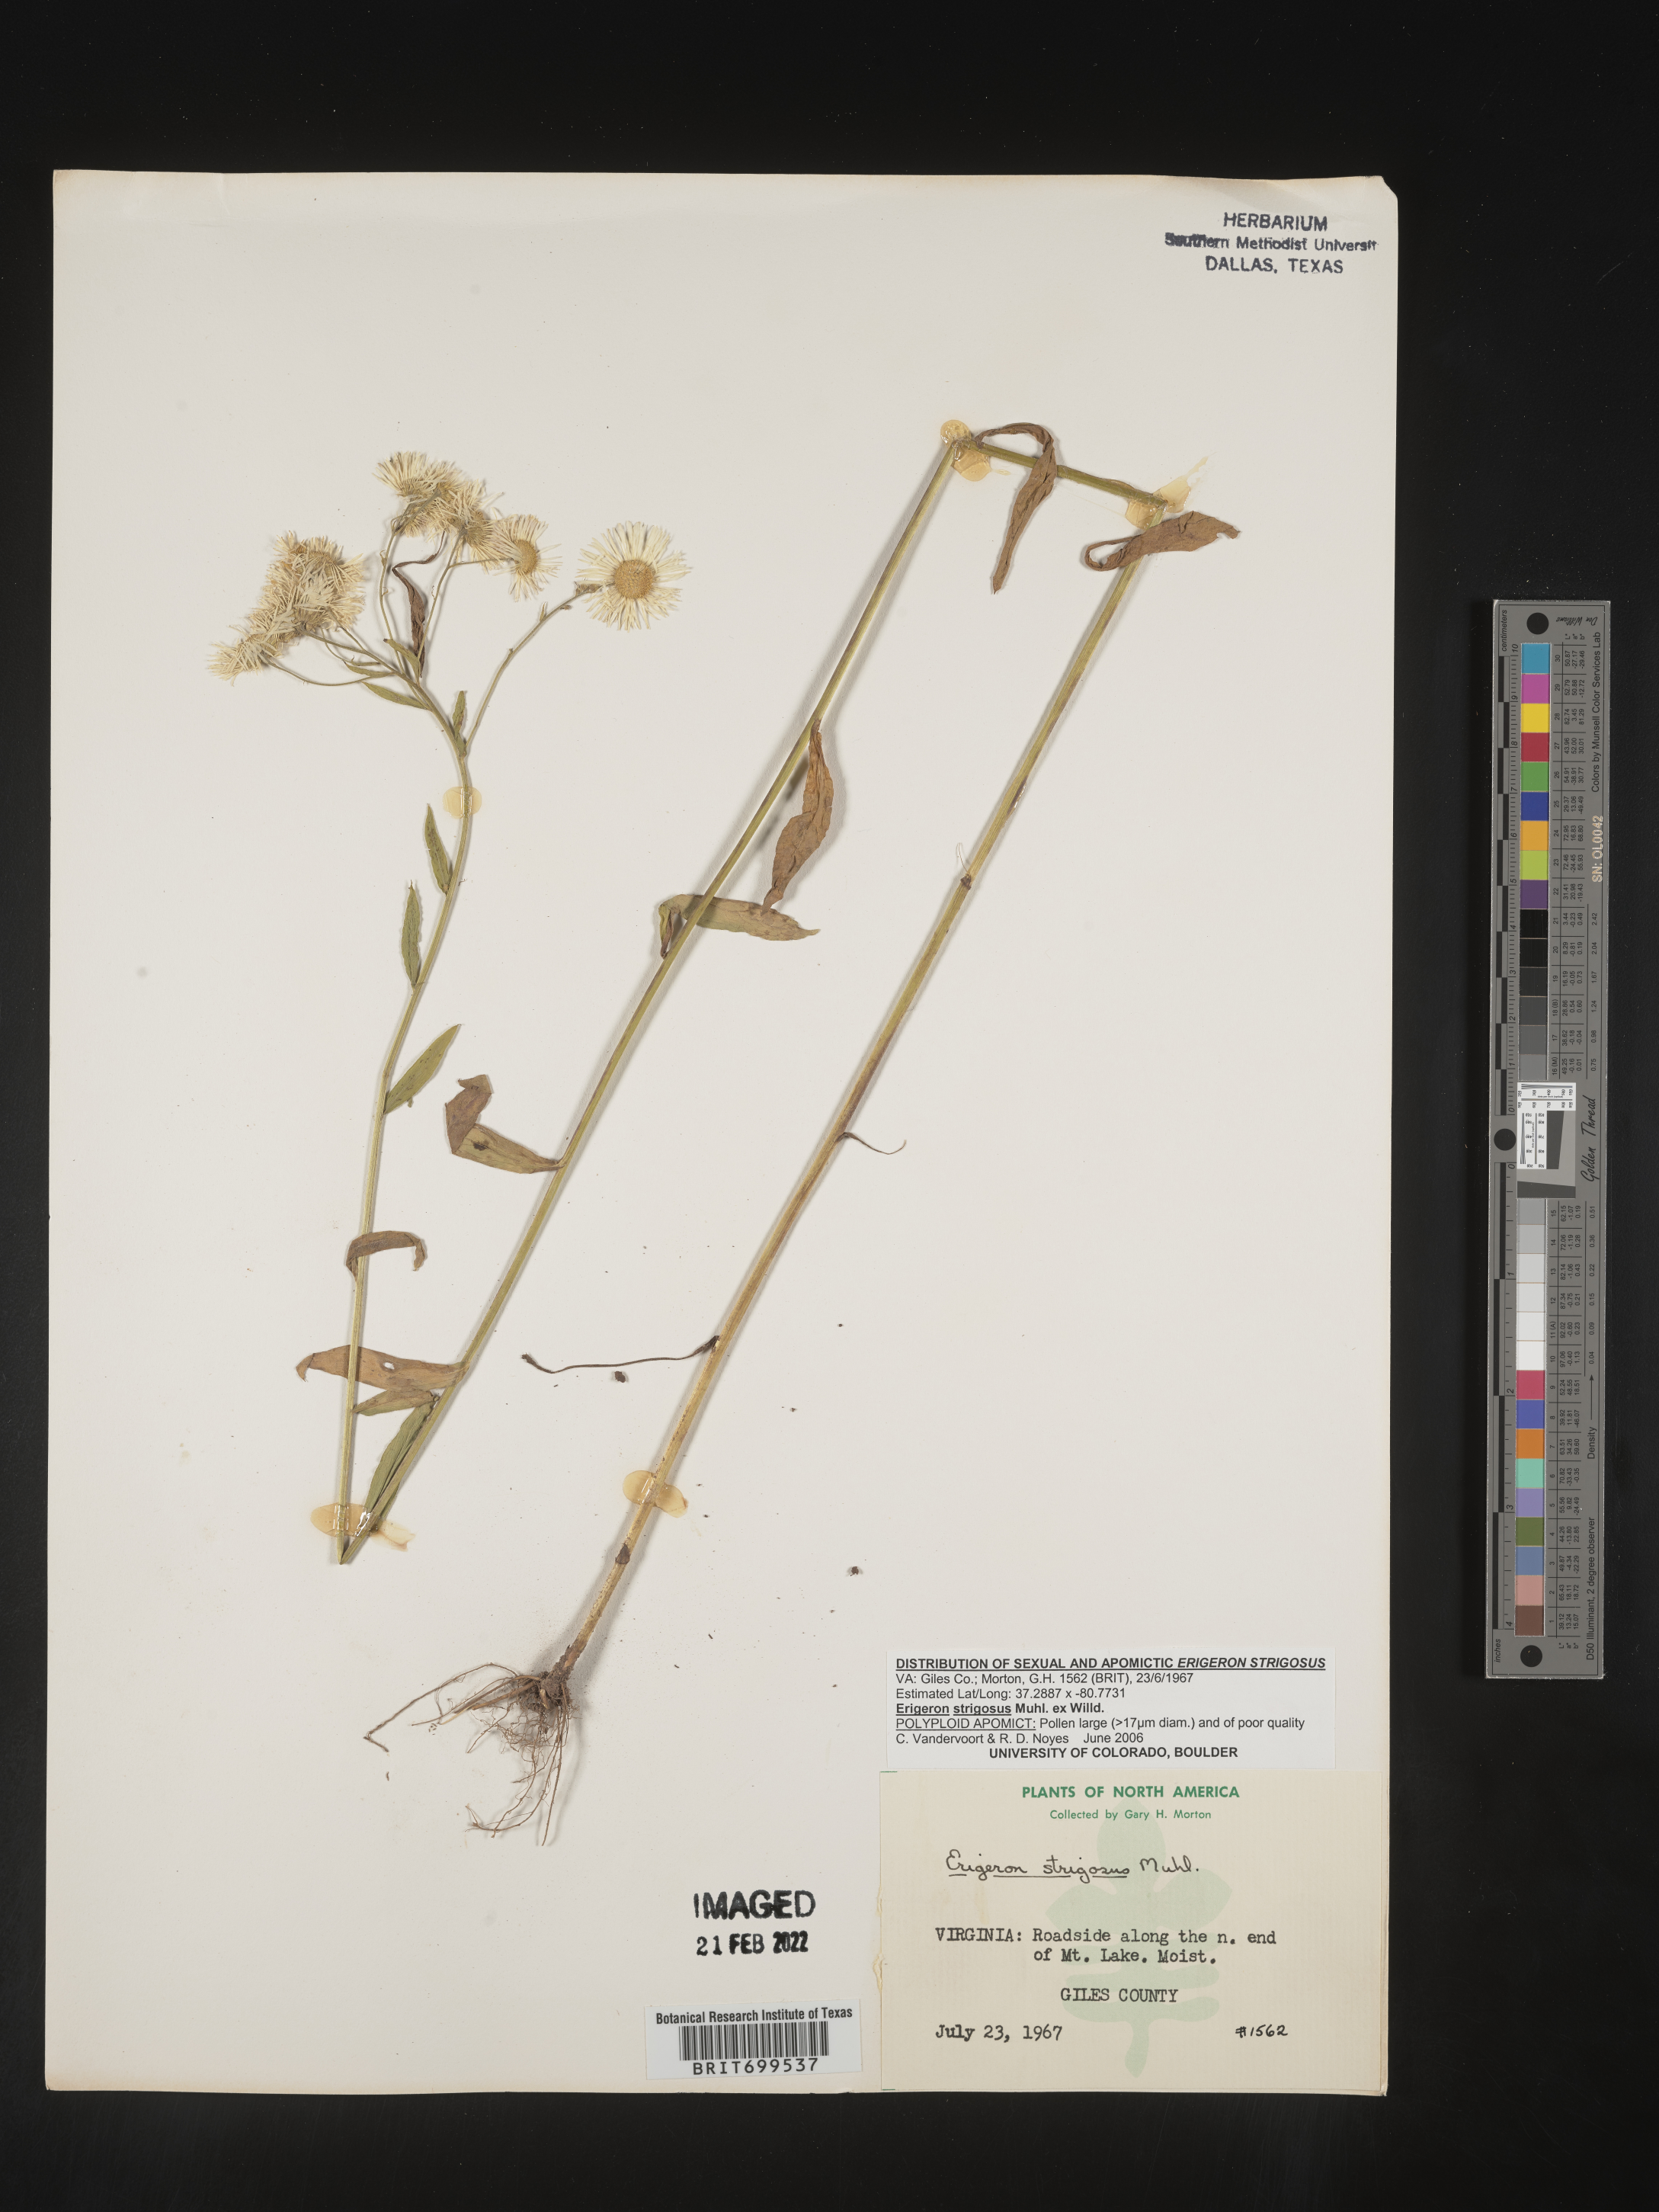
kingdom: Plantae
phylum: Tracheophyta
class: Magnoliopsida
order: Asterales
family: Asteraceae
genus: Erigeron
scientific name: Erigeron strigosus
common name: Common eastern fleabane
